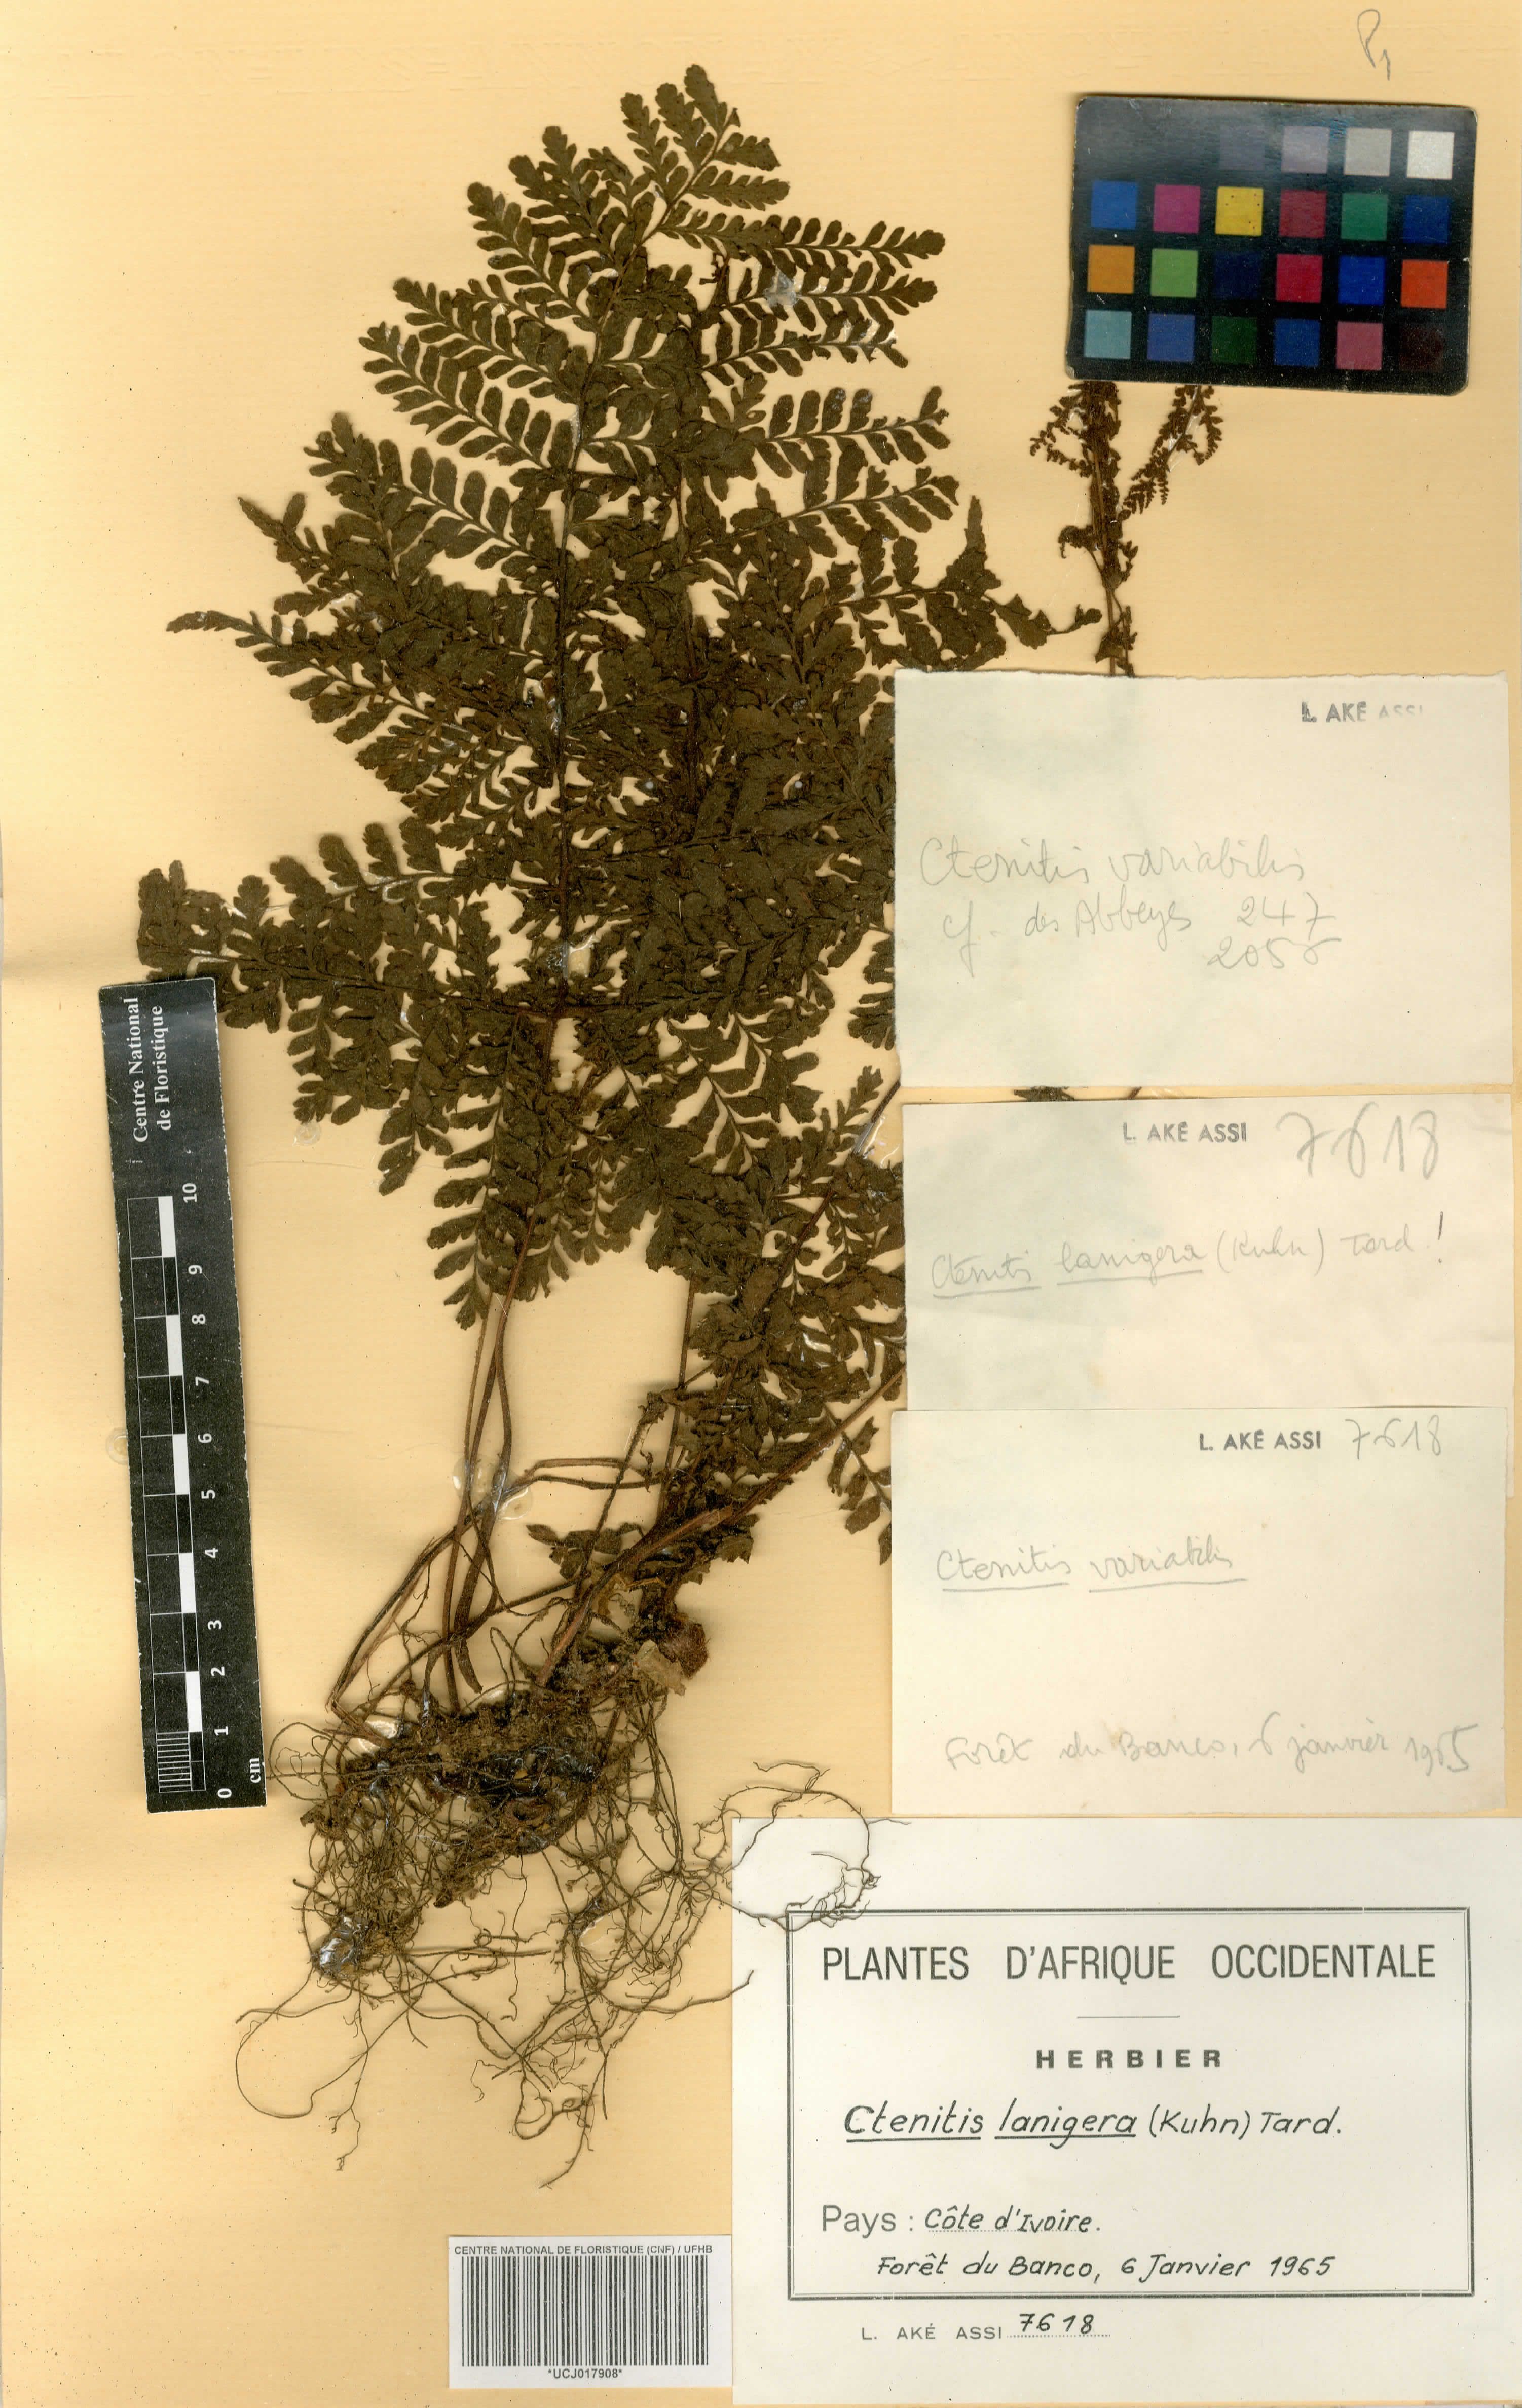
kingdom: Plantae
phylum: Tracheophyta
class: Polypodiopsida
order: Polypodiales
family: Tectariaceae
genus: Triplophyllum
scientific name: Triplophyllum vogelii
